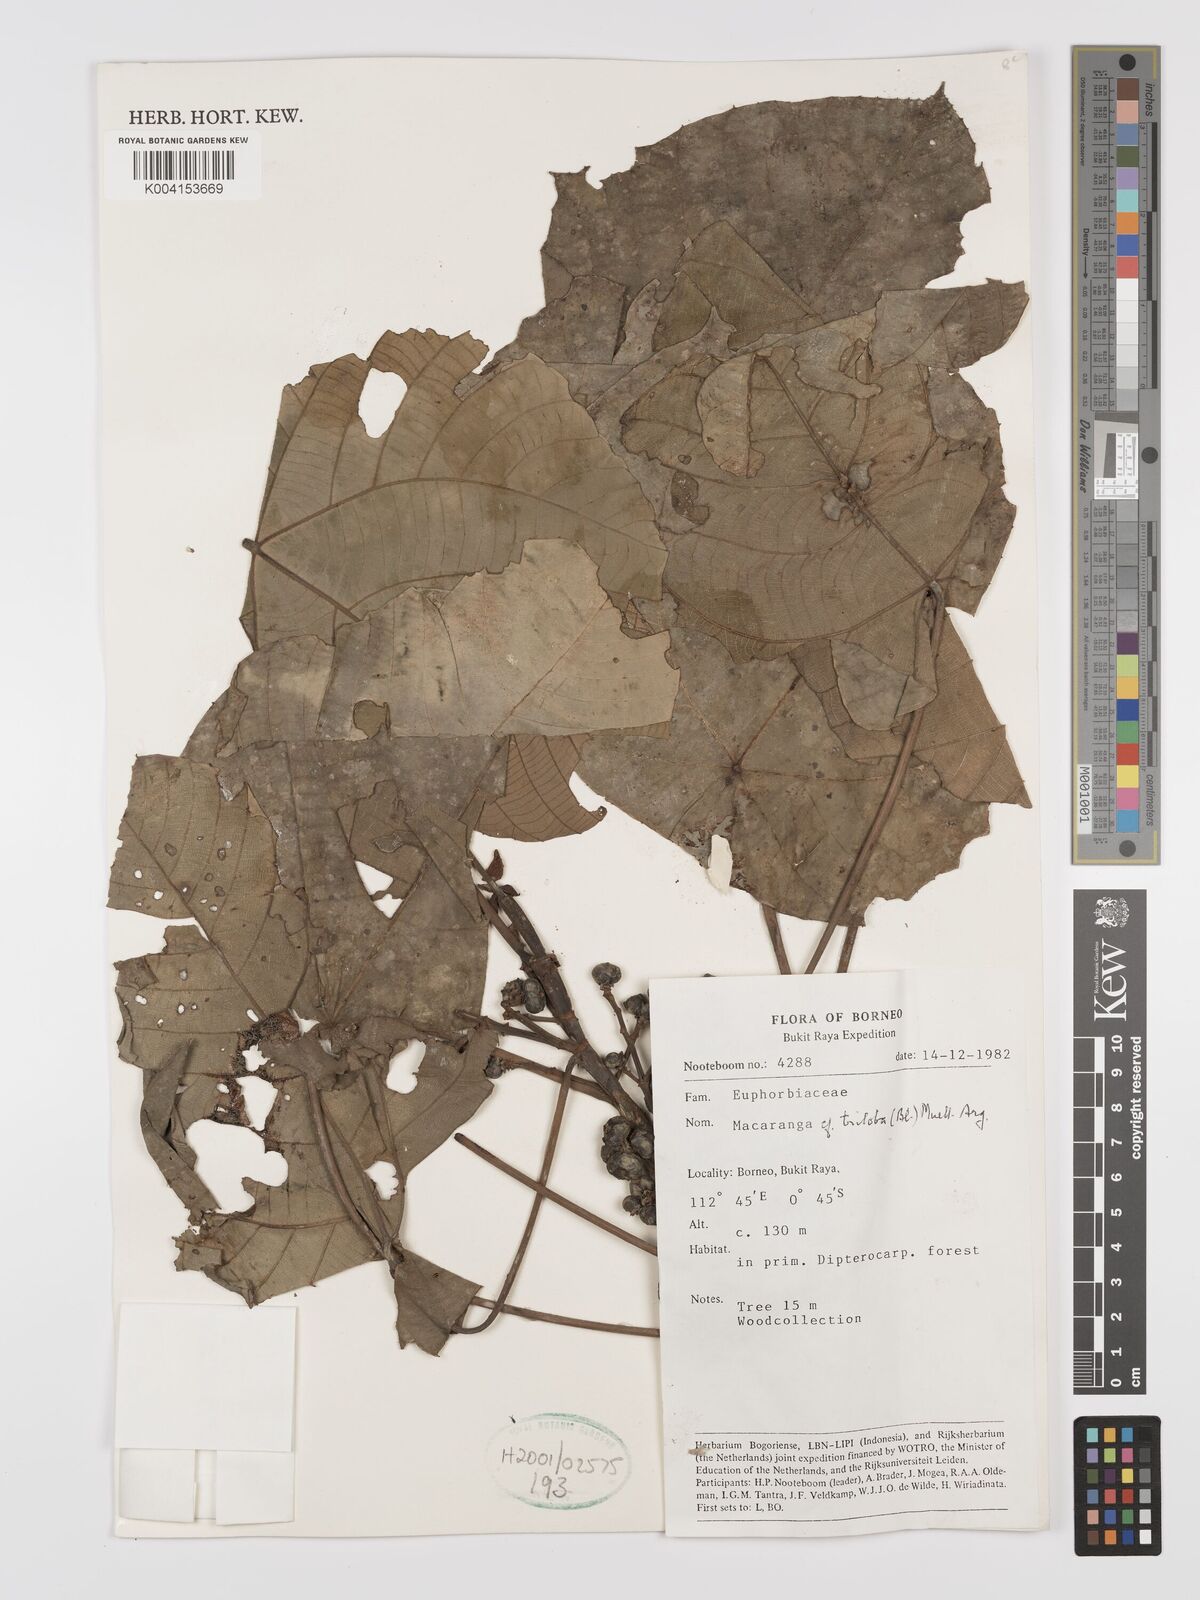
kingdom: Plantae
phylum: Tracheophyta
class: Magnoliopsida
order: Malpighiales
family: Euphorbiaceae
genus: Macaranga
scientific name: Macaranga triloba
